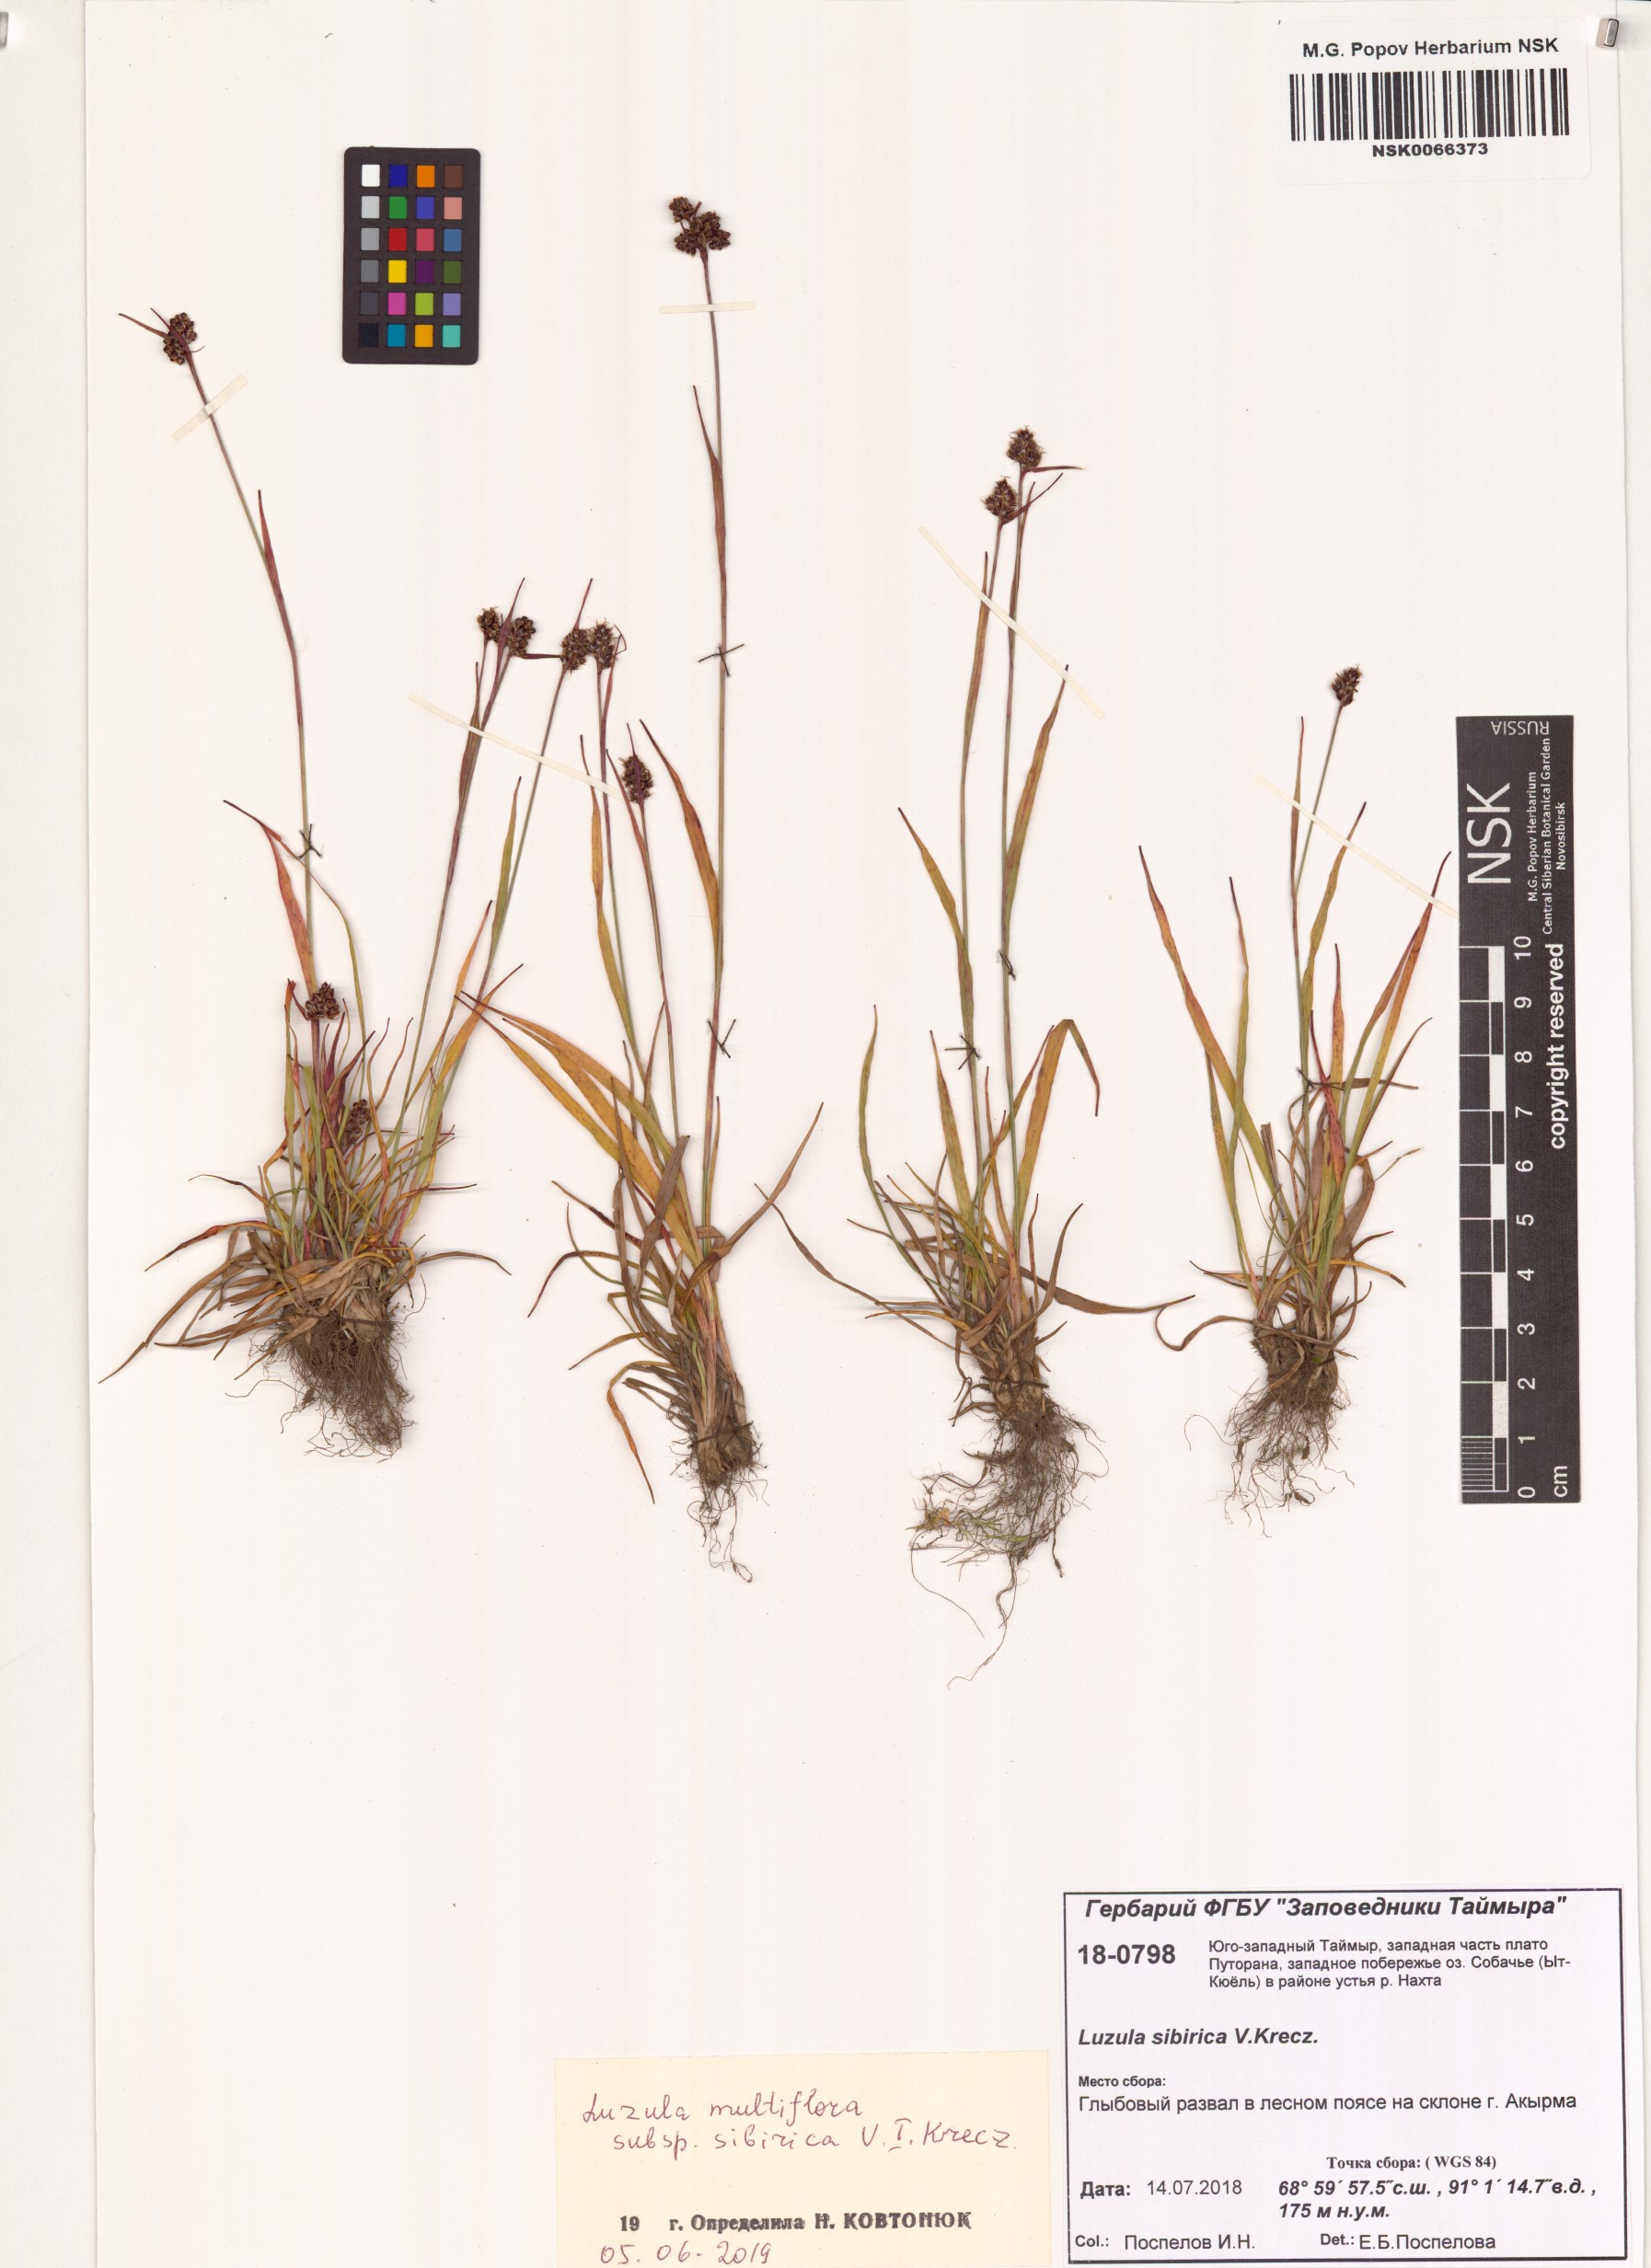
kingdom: Plantae
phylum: Tracheophyta
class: Liliopsida
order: Poales
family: Juncaceae
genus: Luzula
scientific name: Luzula multiflora
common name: Heath wood-rush
